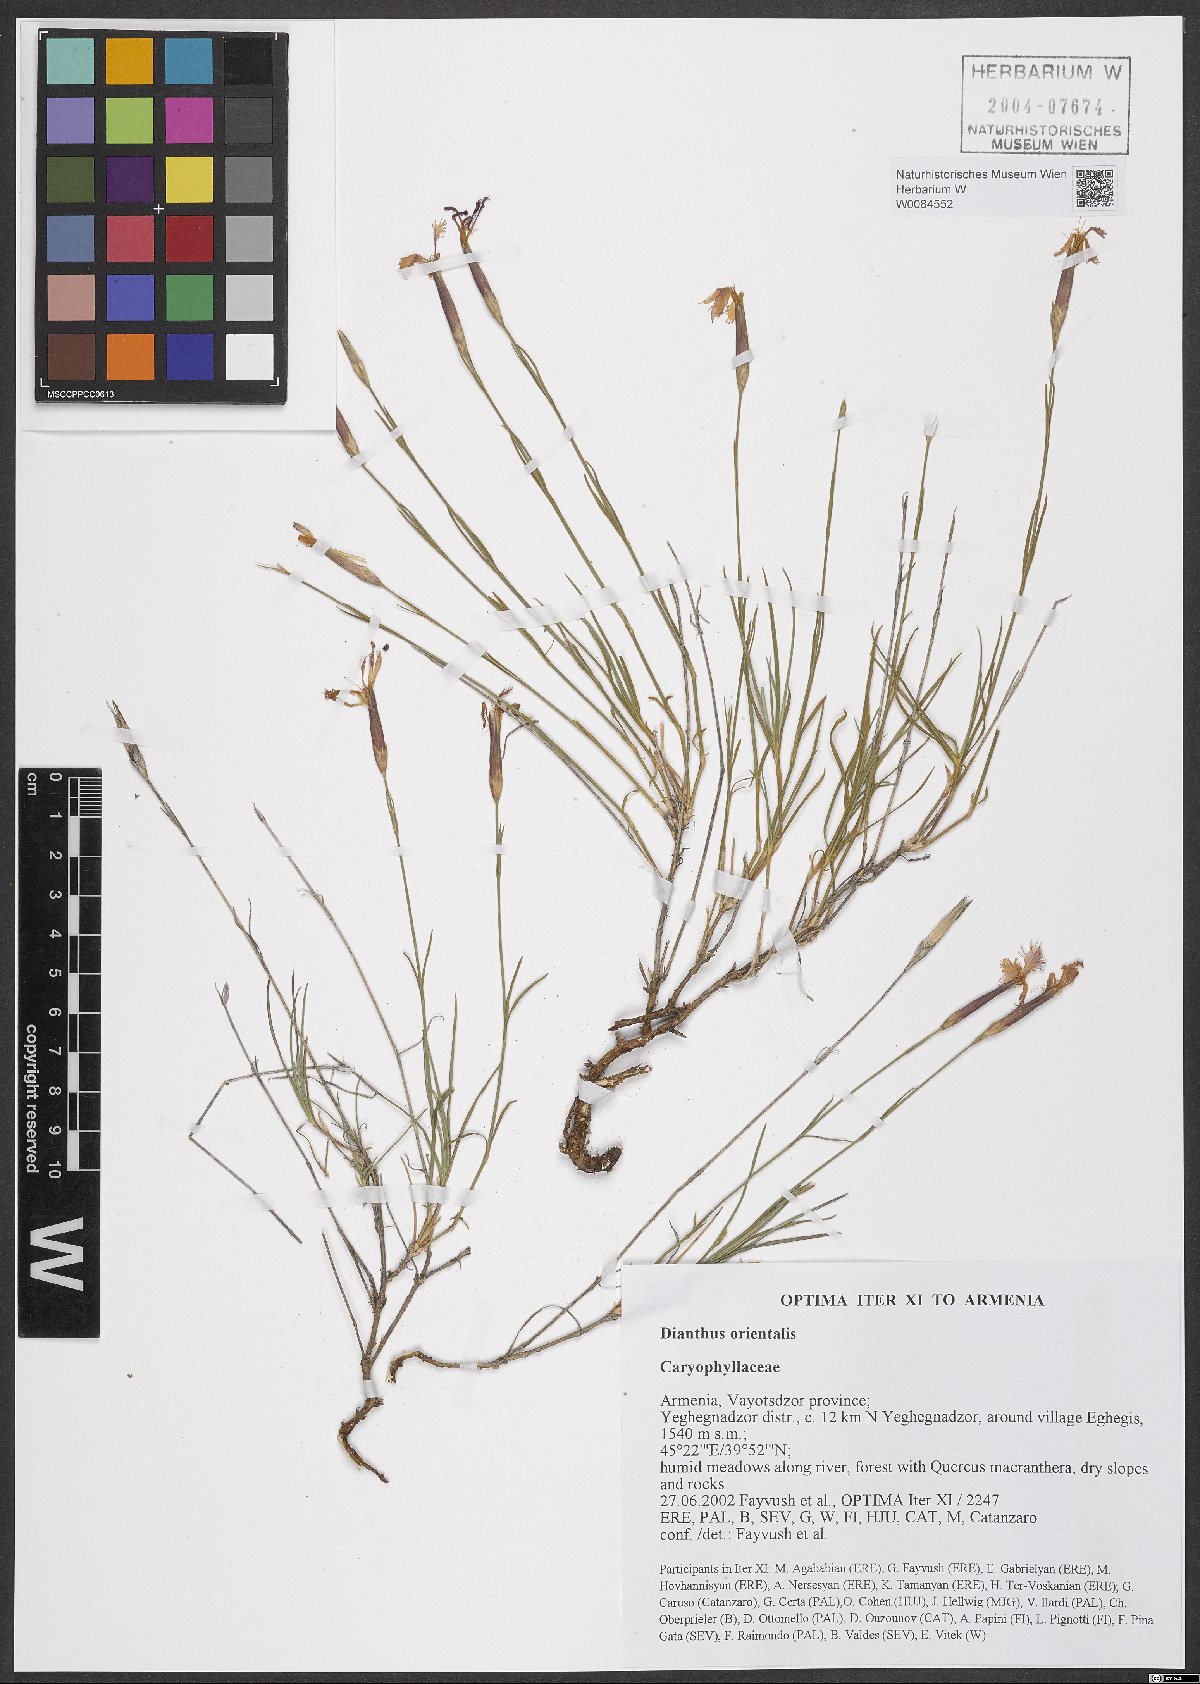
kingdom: Plantae
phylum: Tracheophyta
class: Magnoliopsida
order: Caryophyllales
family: Caryophyllaceae
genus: Dianthus
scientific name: Dianthus orientalis
